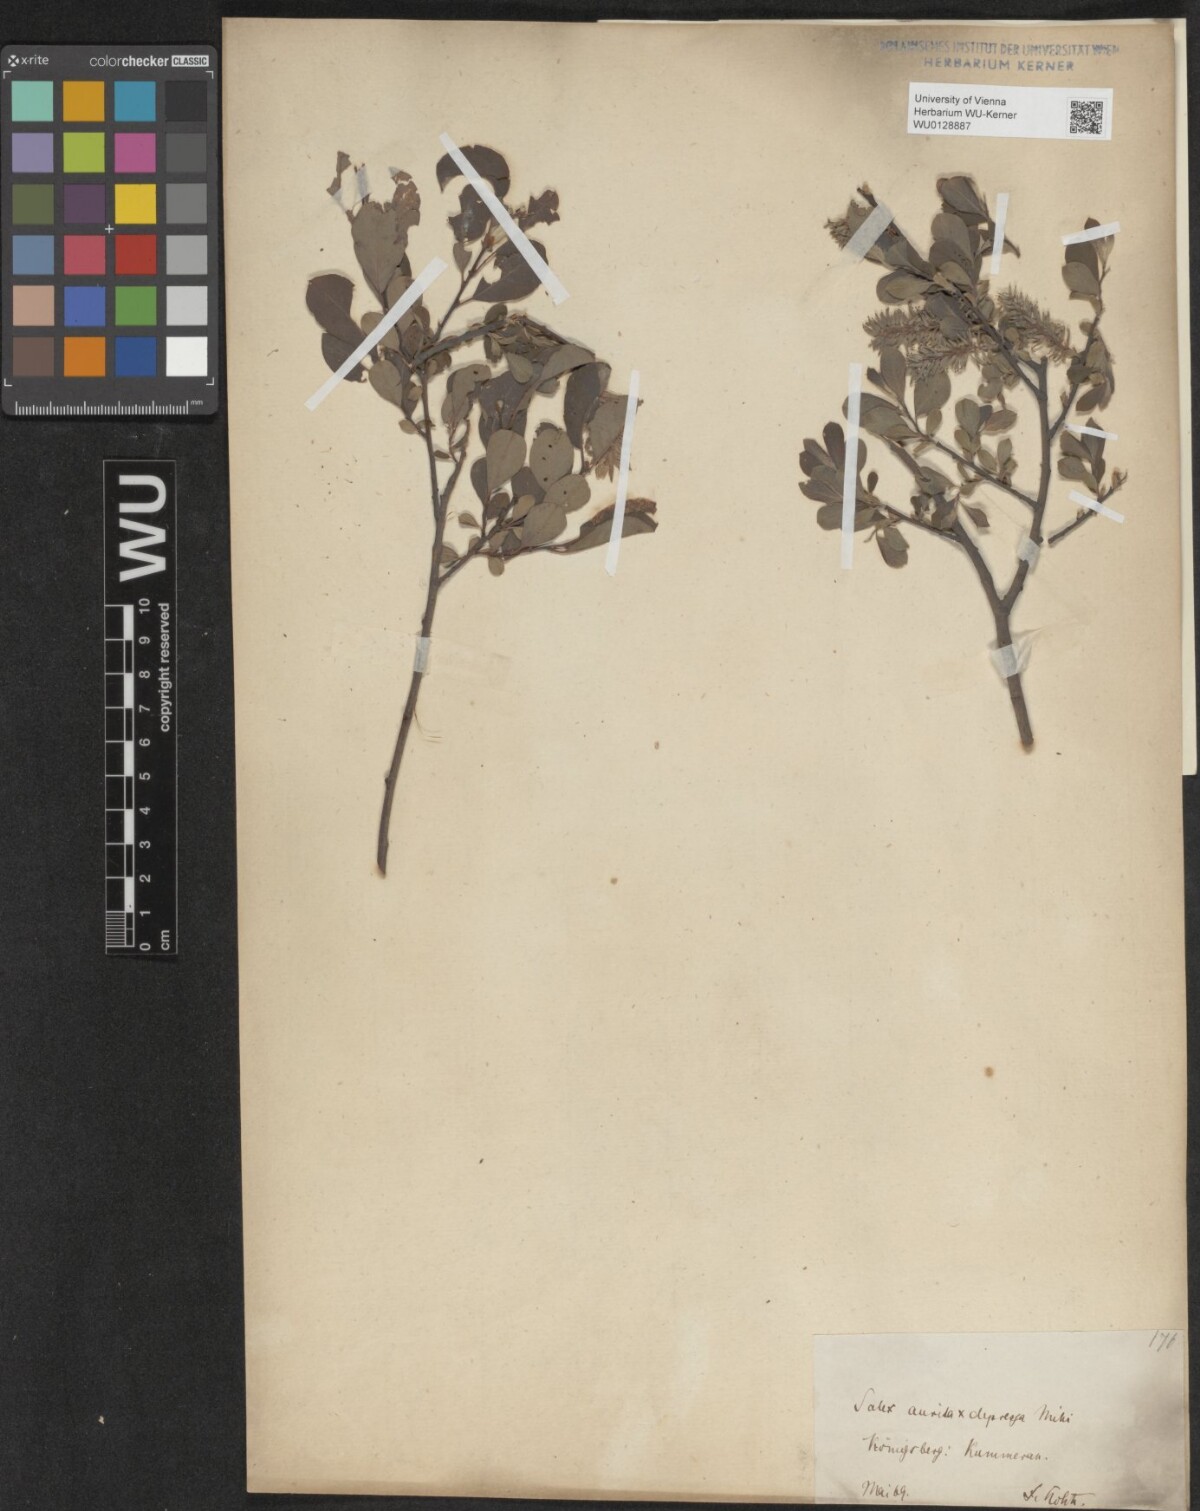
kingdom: Plantae
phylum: Tracheophyta
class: Magnoliopsida
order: Malpighiales
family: Salicaceae
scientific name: Salicaceae
